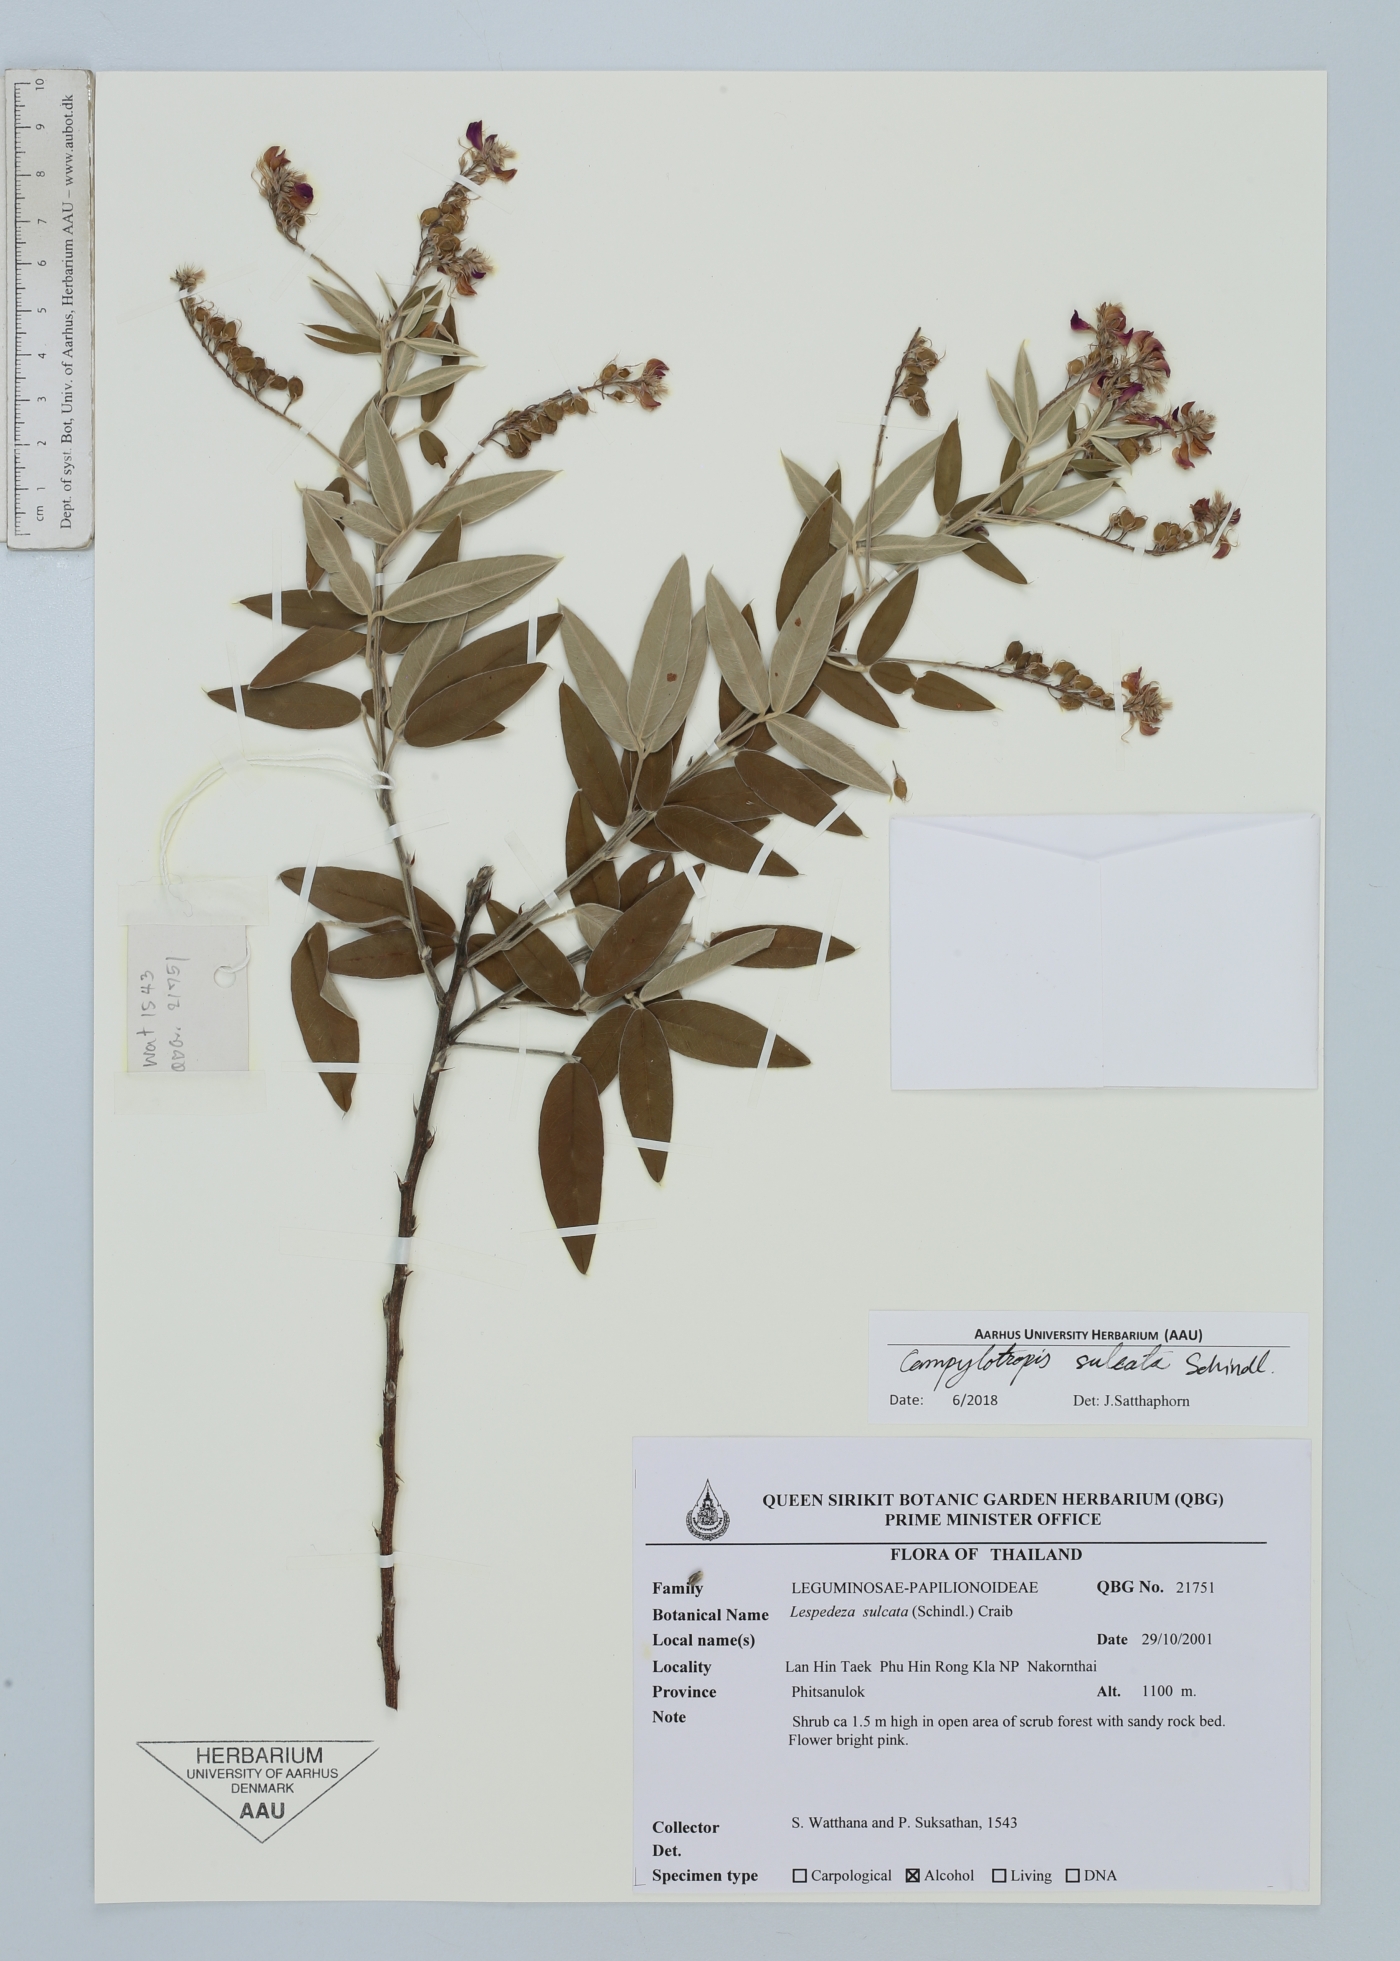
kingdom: Plantae
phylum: Tracheophyta
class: Magnoliopsida
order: Fabales
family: Fabaceae
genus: Campylotropis
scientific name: Campylotropis sulcata
